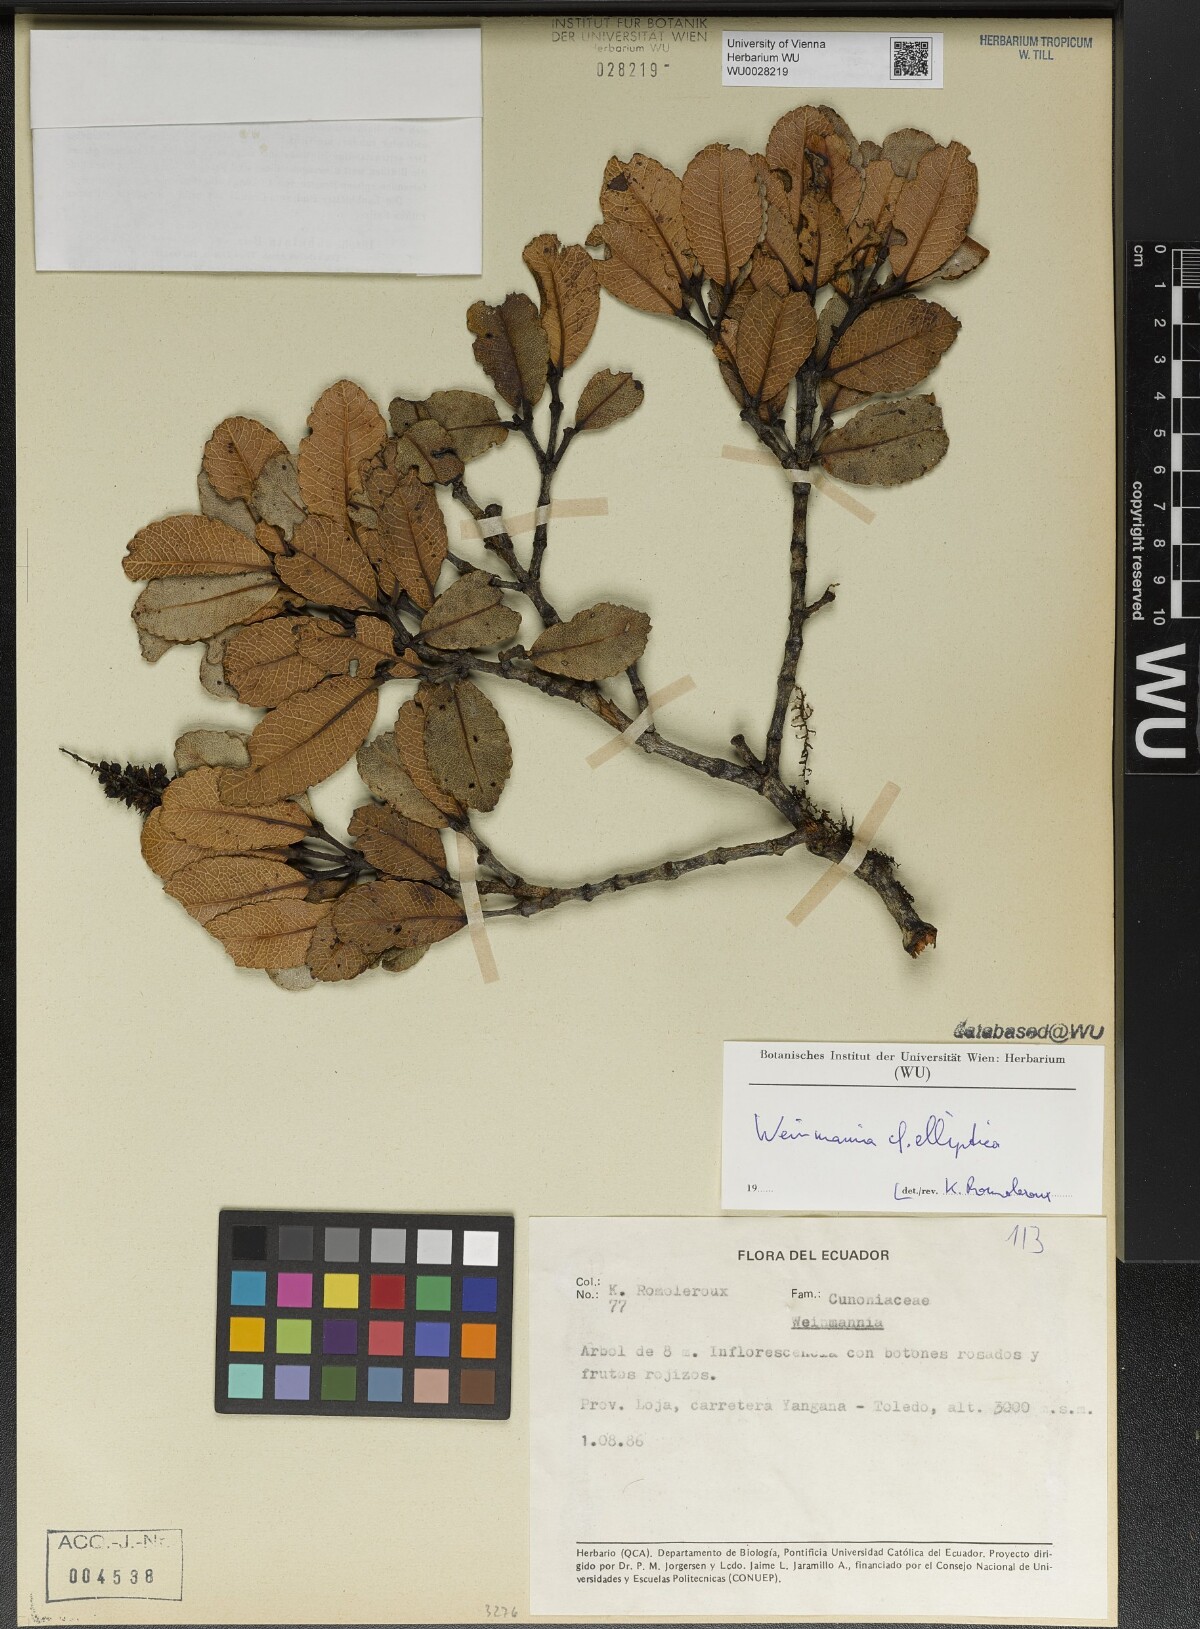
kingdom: Plantae
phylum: Tracheophyta
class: Magnoliopsida
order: Oxalidales
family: Cunoniaceae
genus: Weinmannia
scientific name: Weinmannia elliptica
